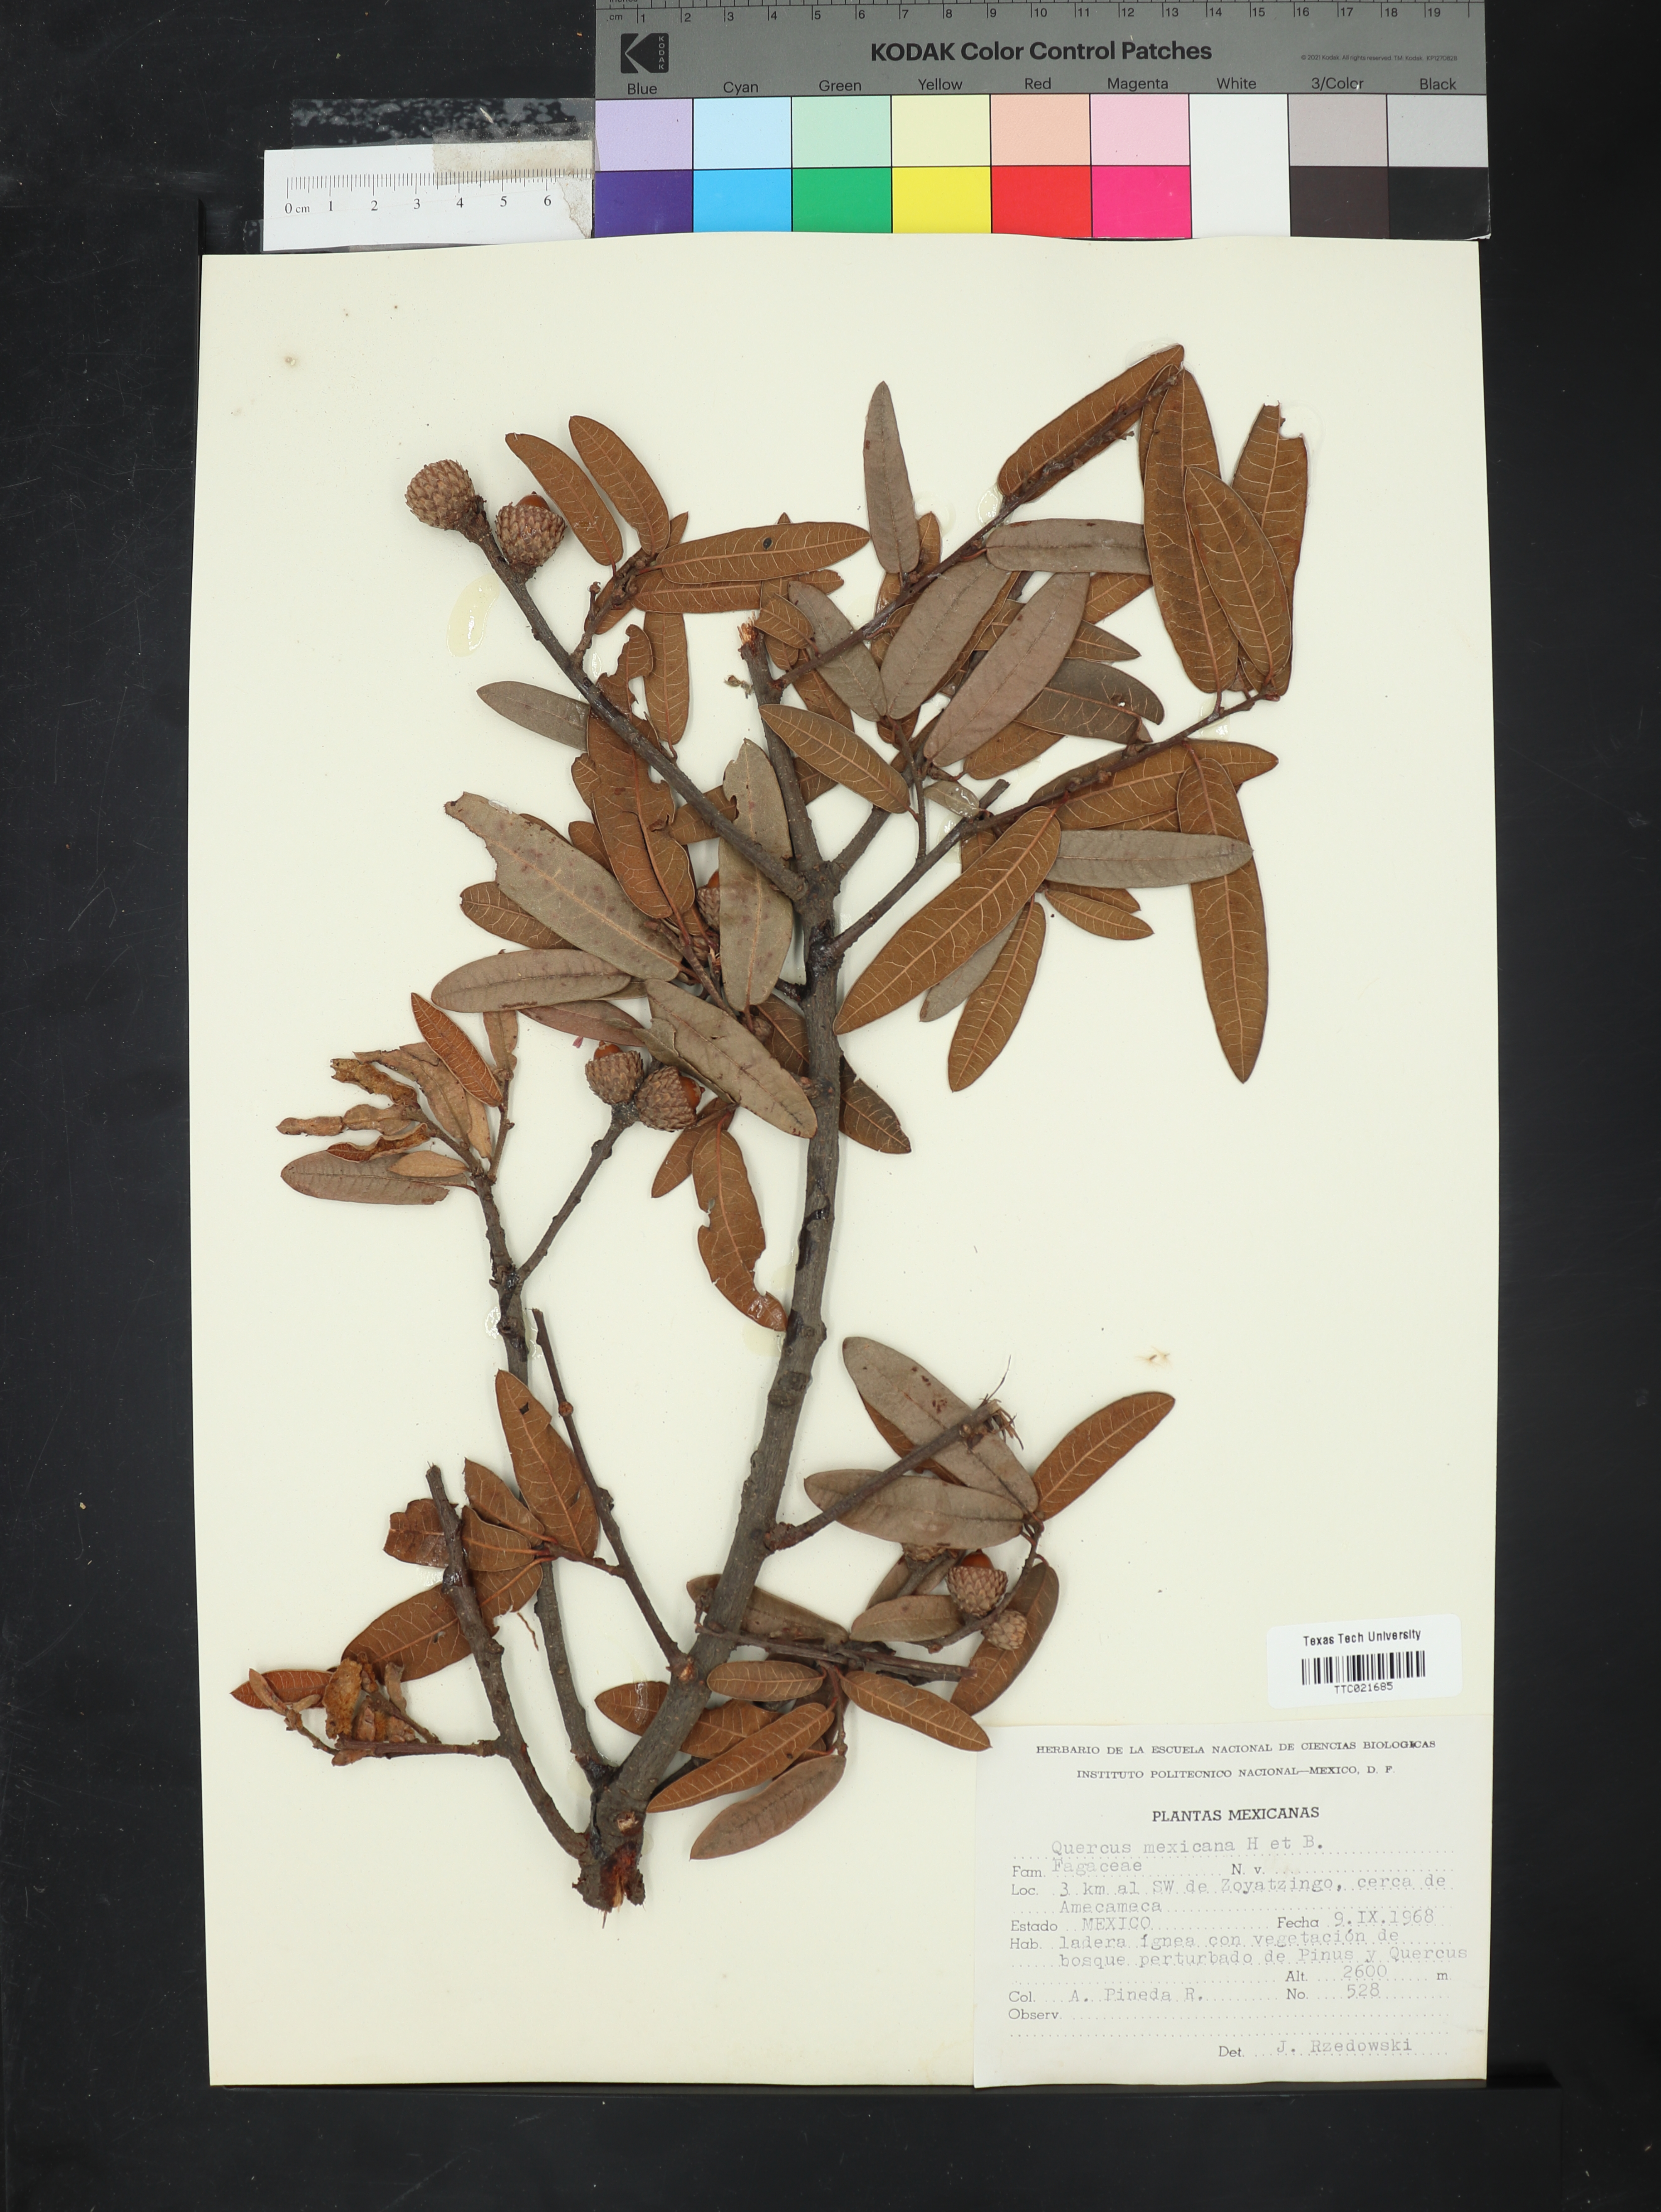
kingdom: Plantae
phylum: Tracheophyta
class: Magnoliopsida
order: Fagales
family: Fagaceae
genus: Quercus
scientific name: Quercus mexicana
